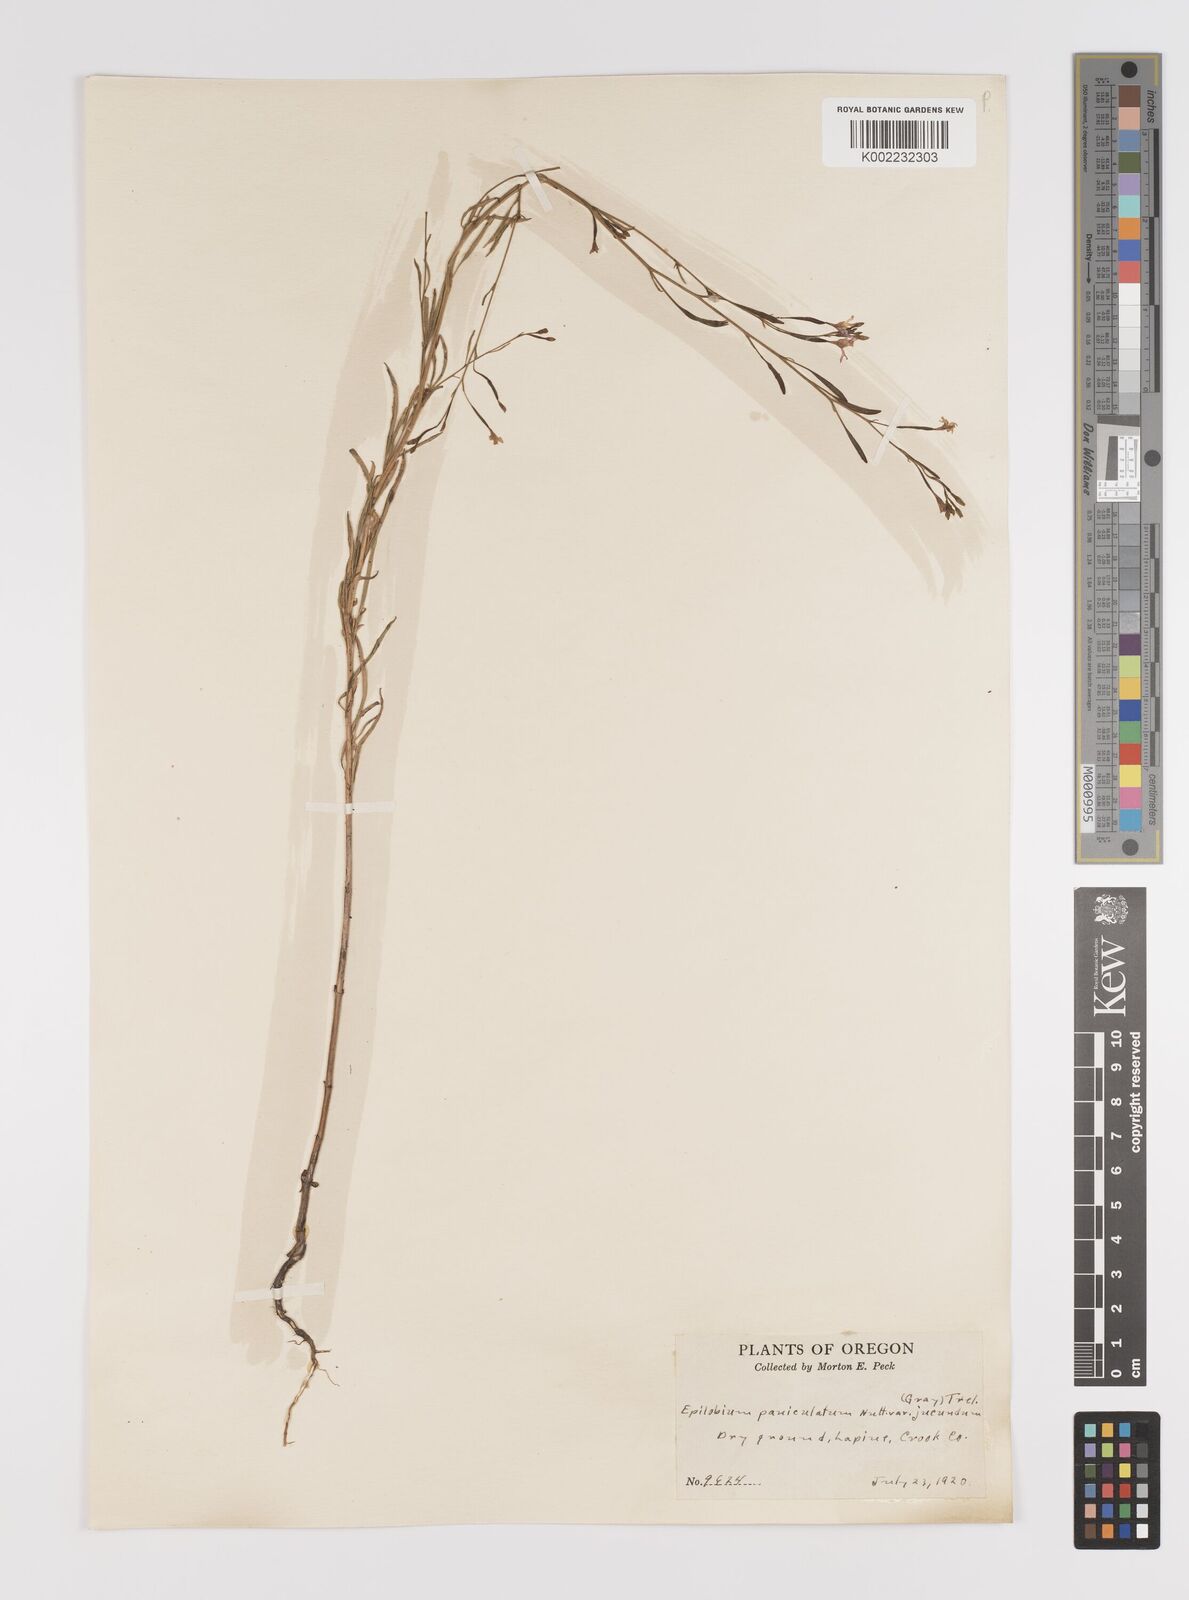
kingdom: Plantae
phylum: Tracheophyta
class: Magnoliopsida
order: Myrtales
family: Onagraceae
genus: Epilobium
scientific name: Epilobium
